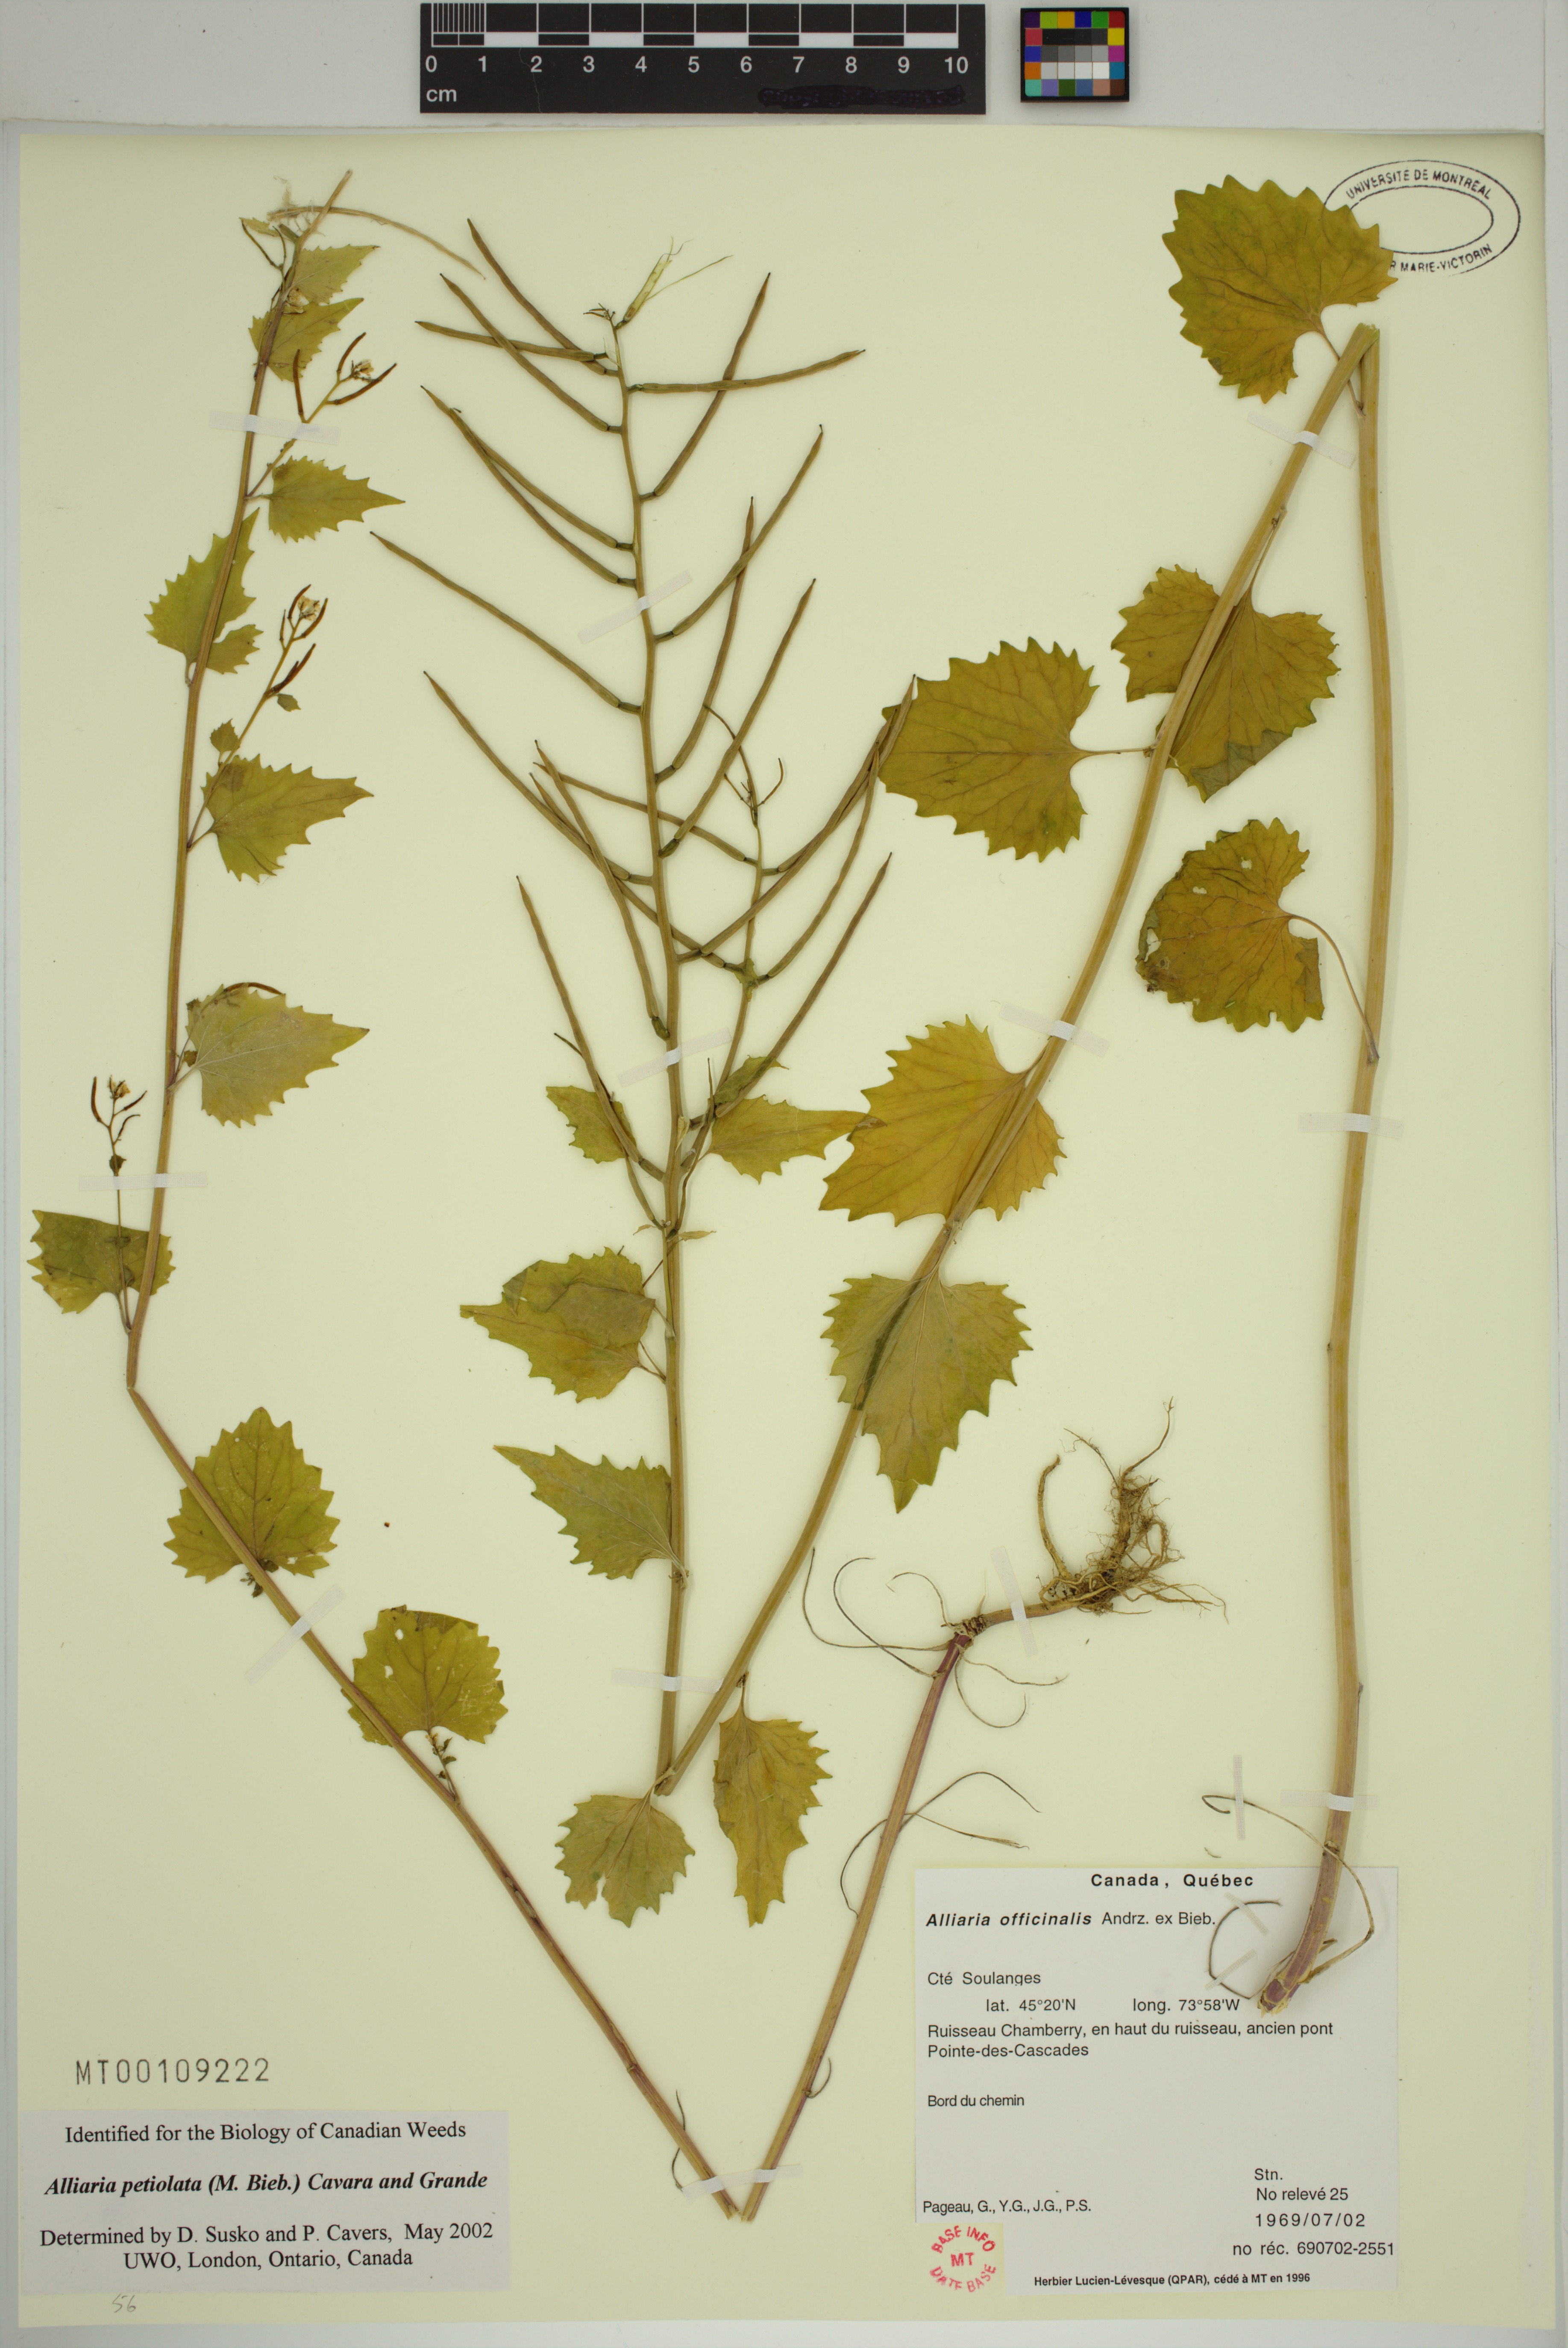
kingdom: Plantae
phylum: Tracheophyta
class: Magnoliopsida
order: Brassicales
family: Brassicaceae
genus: Alliaria
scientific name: Alliaria petiolata
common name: Garlic mustard
